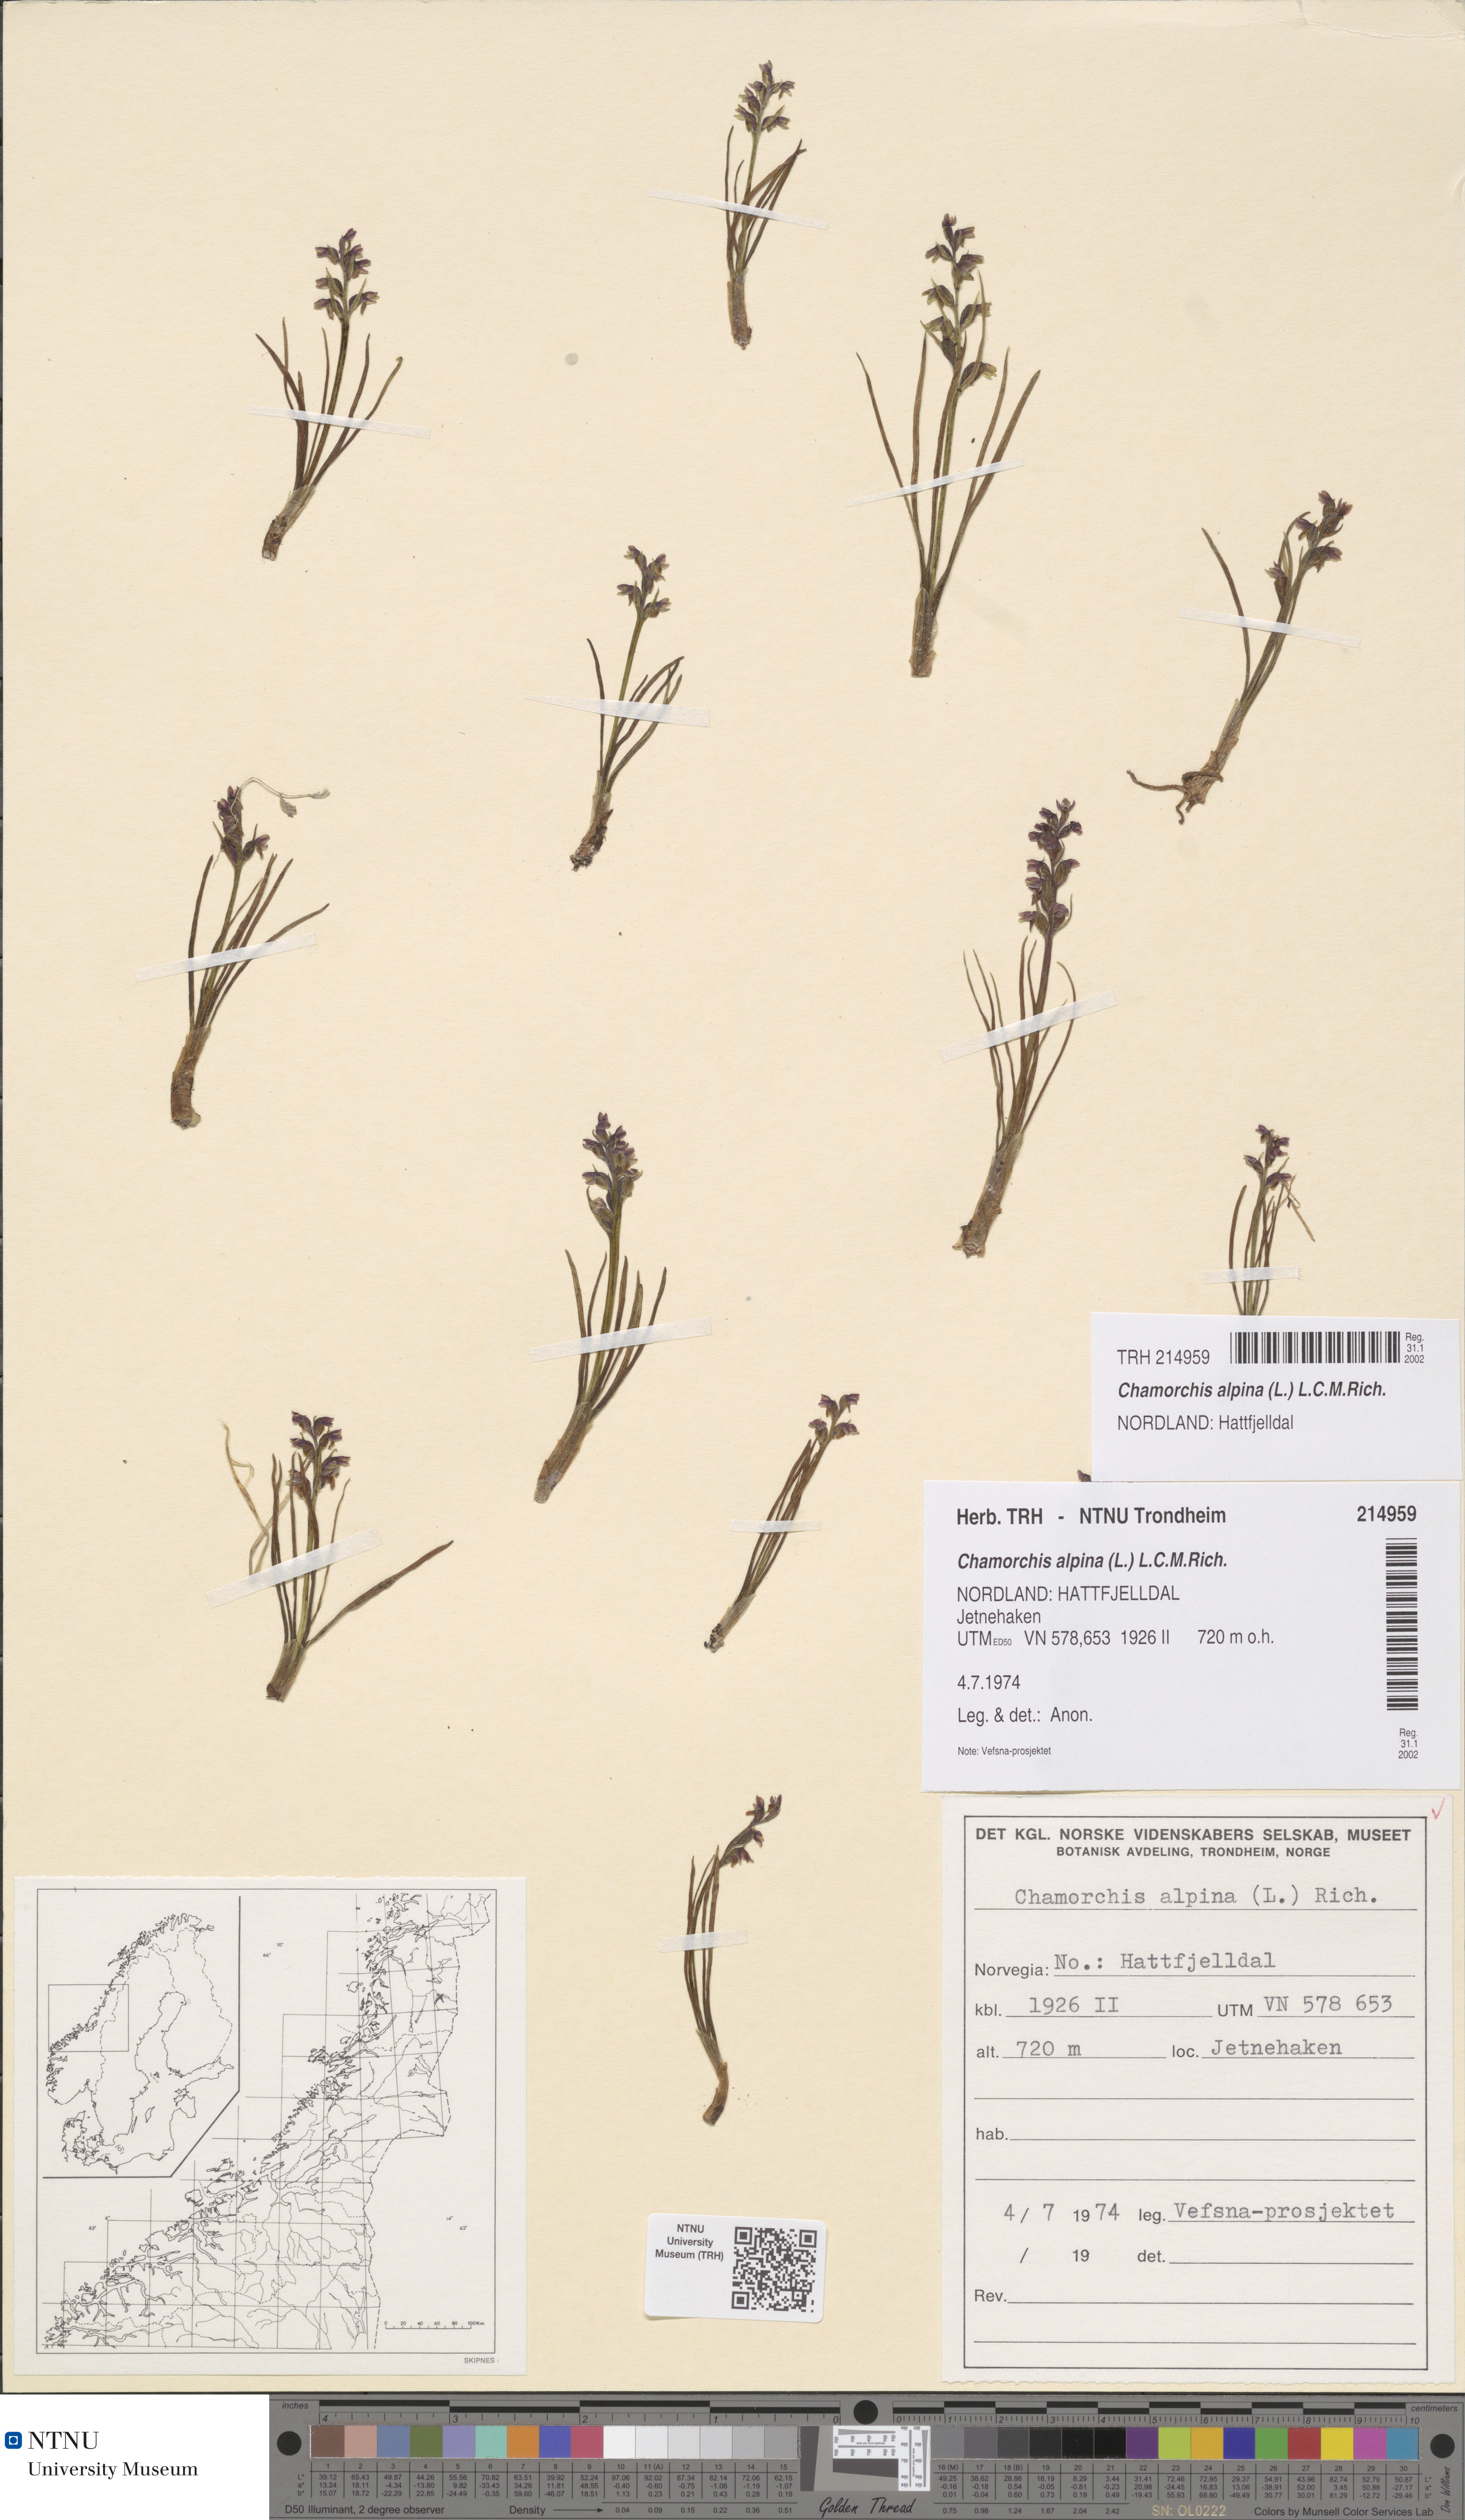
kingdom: Plantae
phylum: Tracheophyta
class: Liliopsida
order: Asparagales
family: Orchidaceae
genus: Chamorchis
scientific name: Chamorchis alpina
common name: Alpine chamorchis
